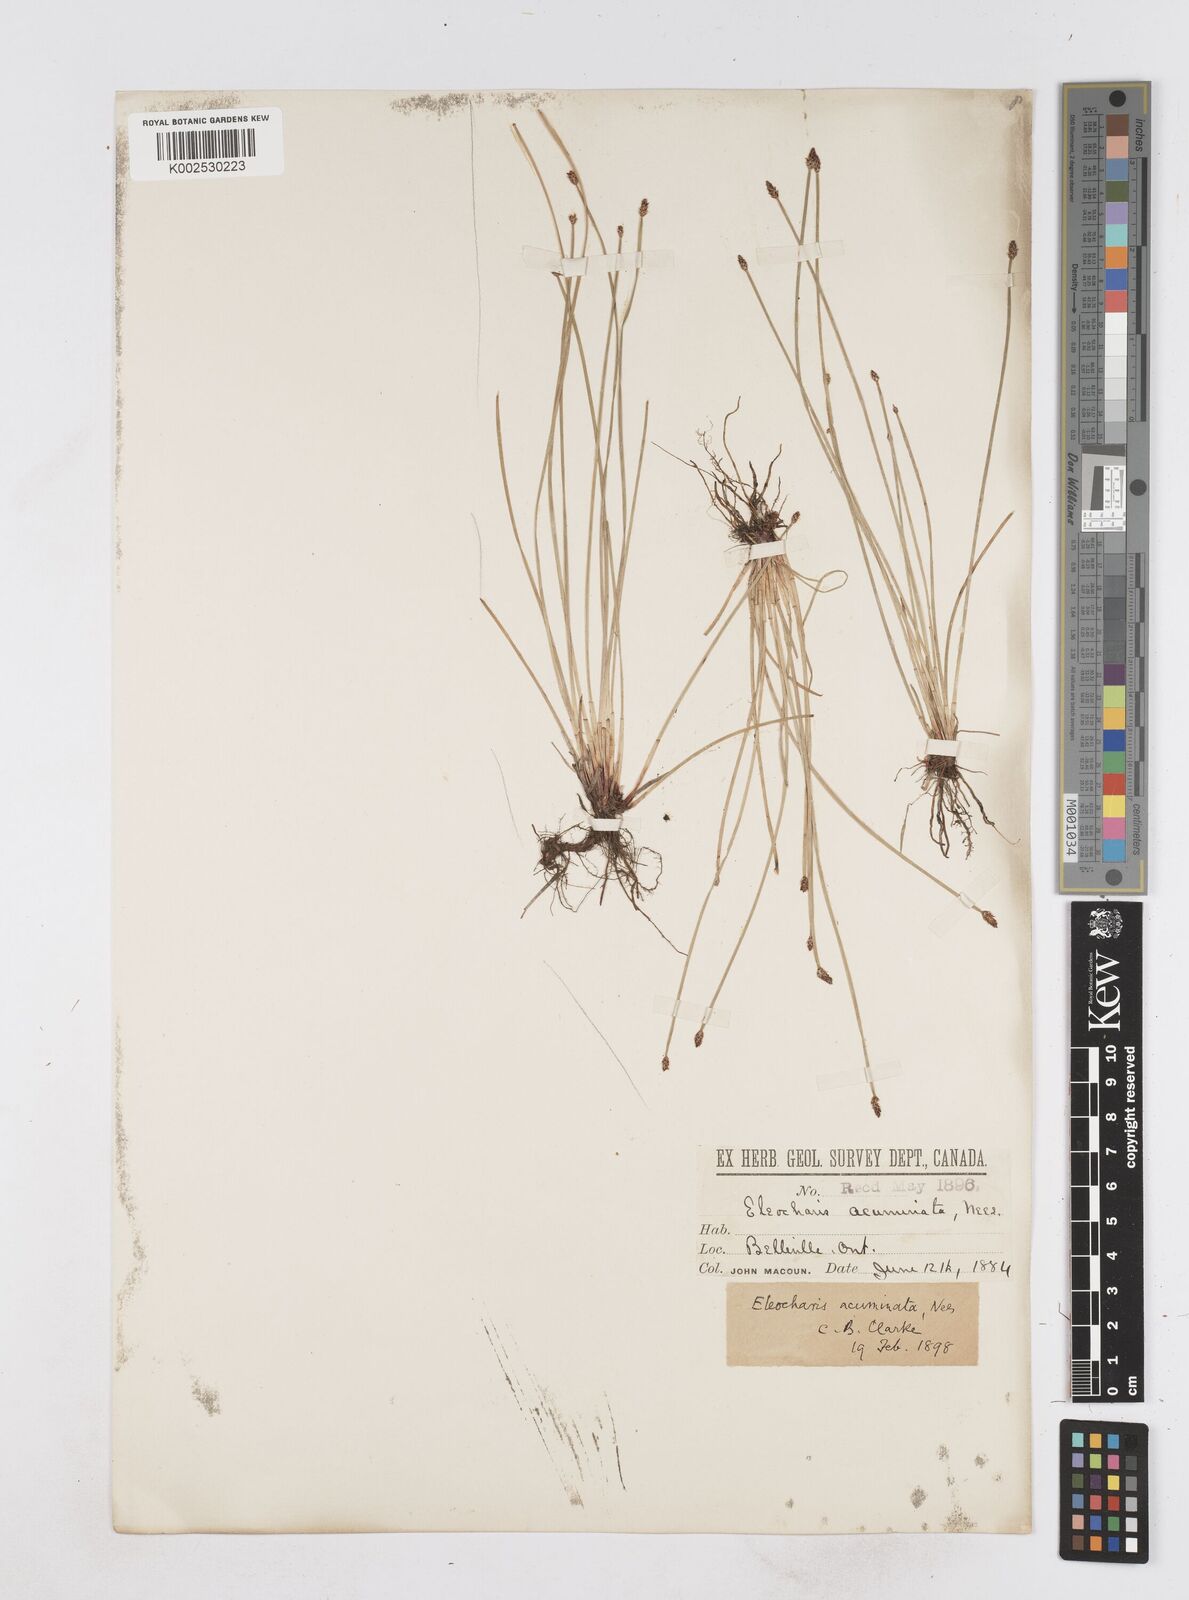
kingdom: Plantae
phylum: Tracheophyta
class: Liliopsida
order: Poales
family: Cyperaceae
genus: Eleocharis
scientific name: Eleocharis compressa
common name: Flat-stem spike-rush
